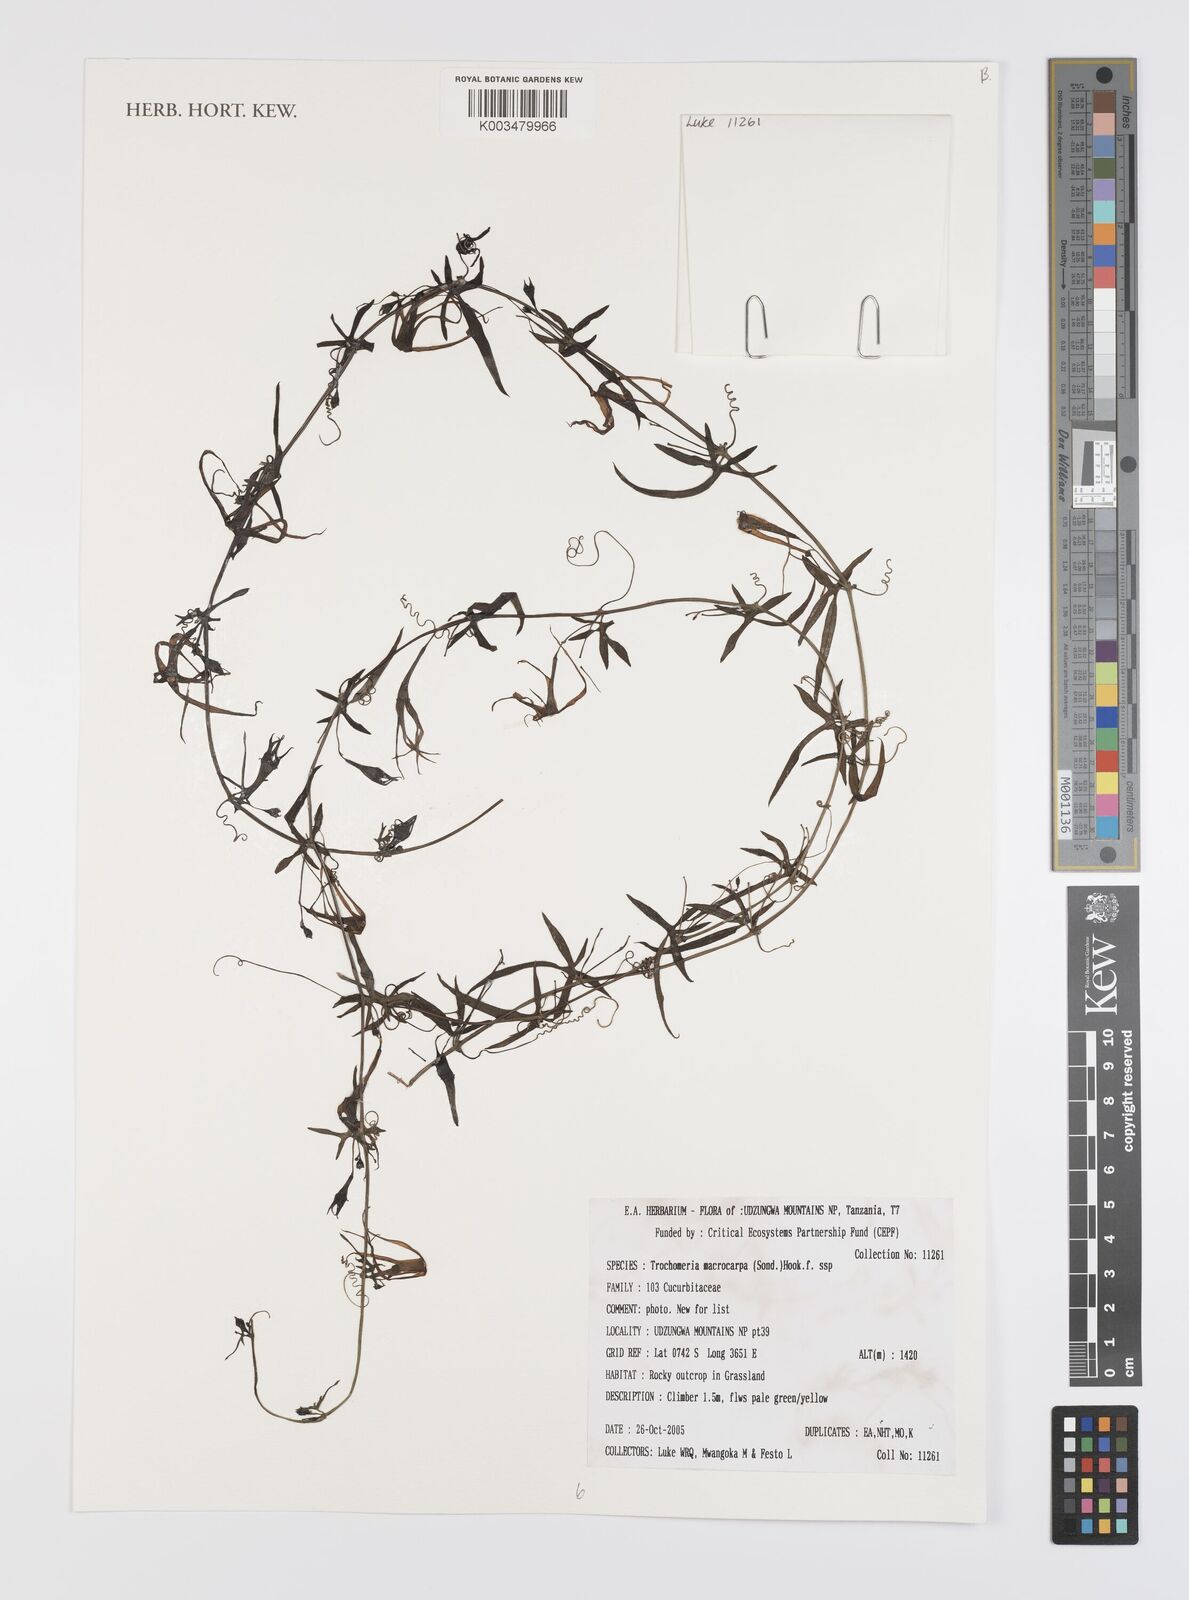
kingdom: Plantae
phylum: Tracheophyta
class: Magnoliopsida
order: Cucurbitales
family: Cucurbitaceae
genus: Trochomeria
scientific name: Trochomeria macrocarpa
